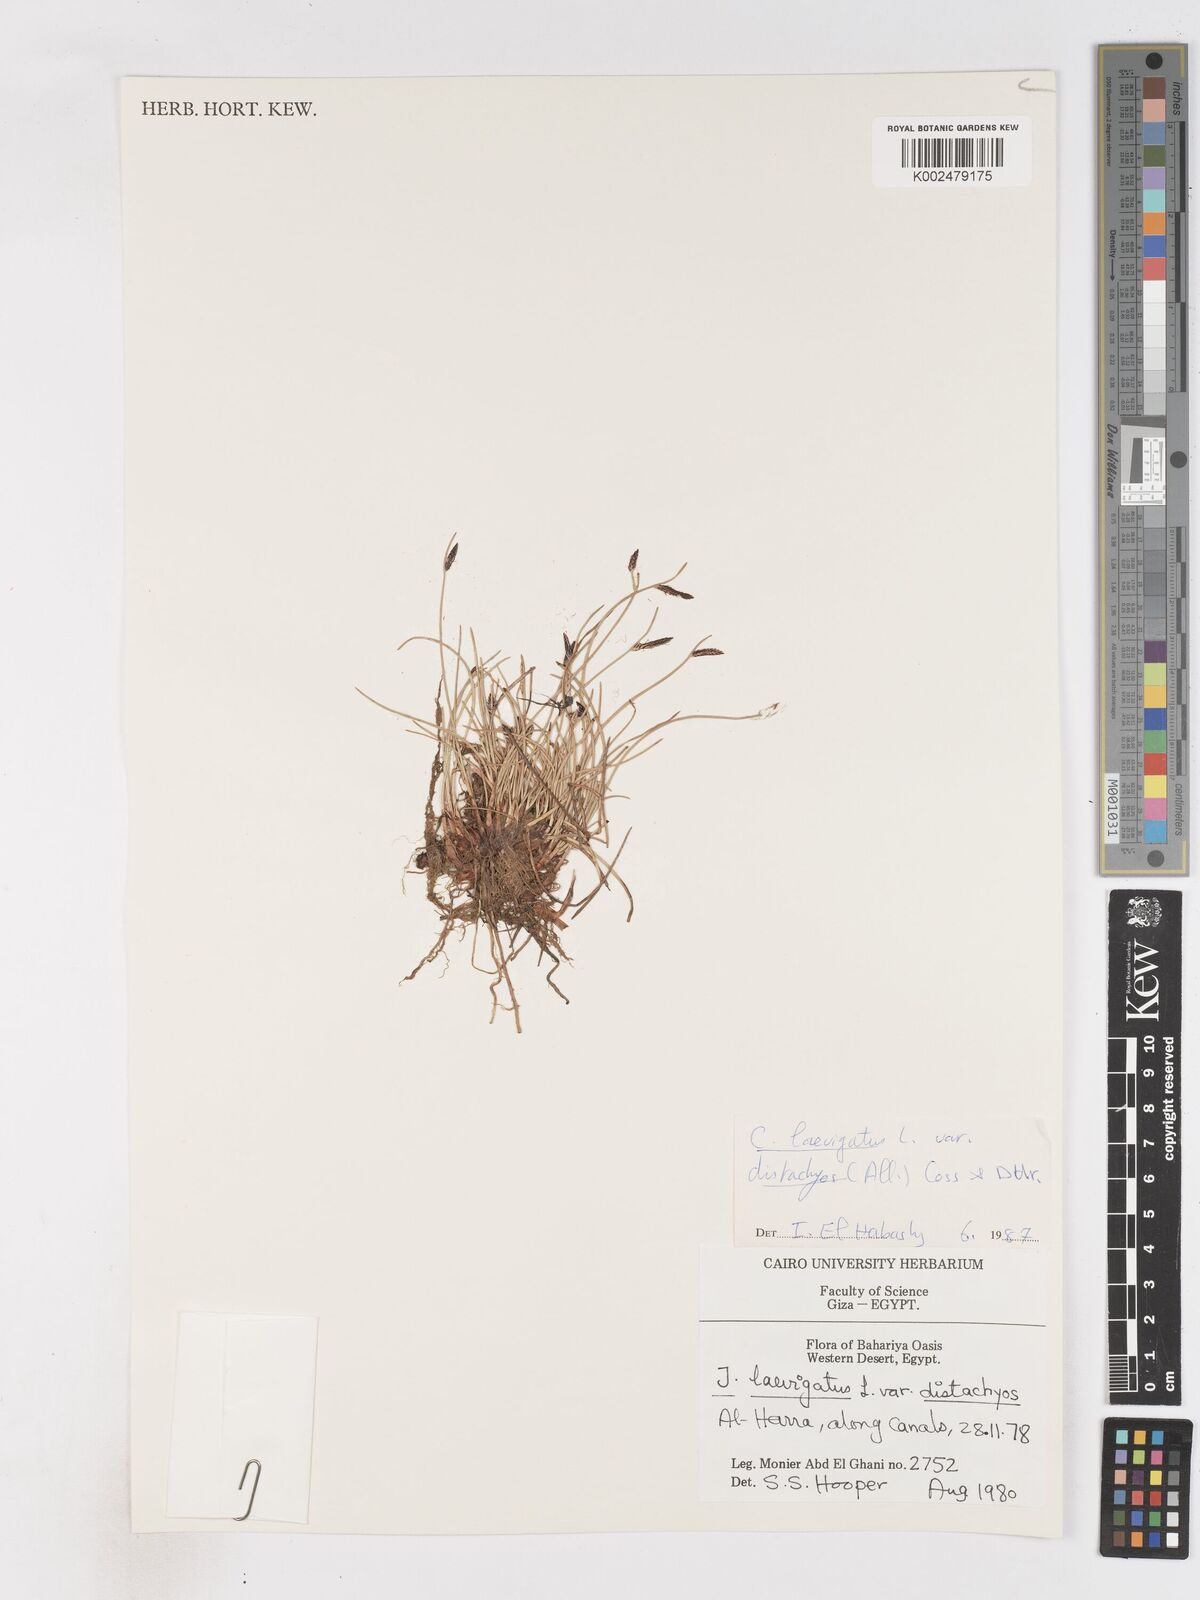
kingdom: Plantae
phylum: Tracheophyta
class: Liliopsida
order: Poales
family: Cyperaceae
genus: Cyperus
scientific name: Cyperus laevigatus
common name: Smooth flat sedge
